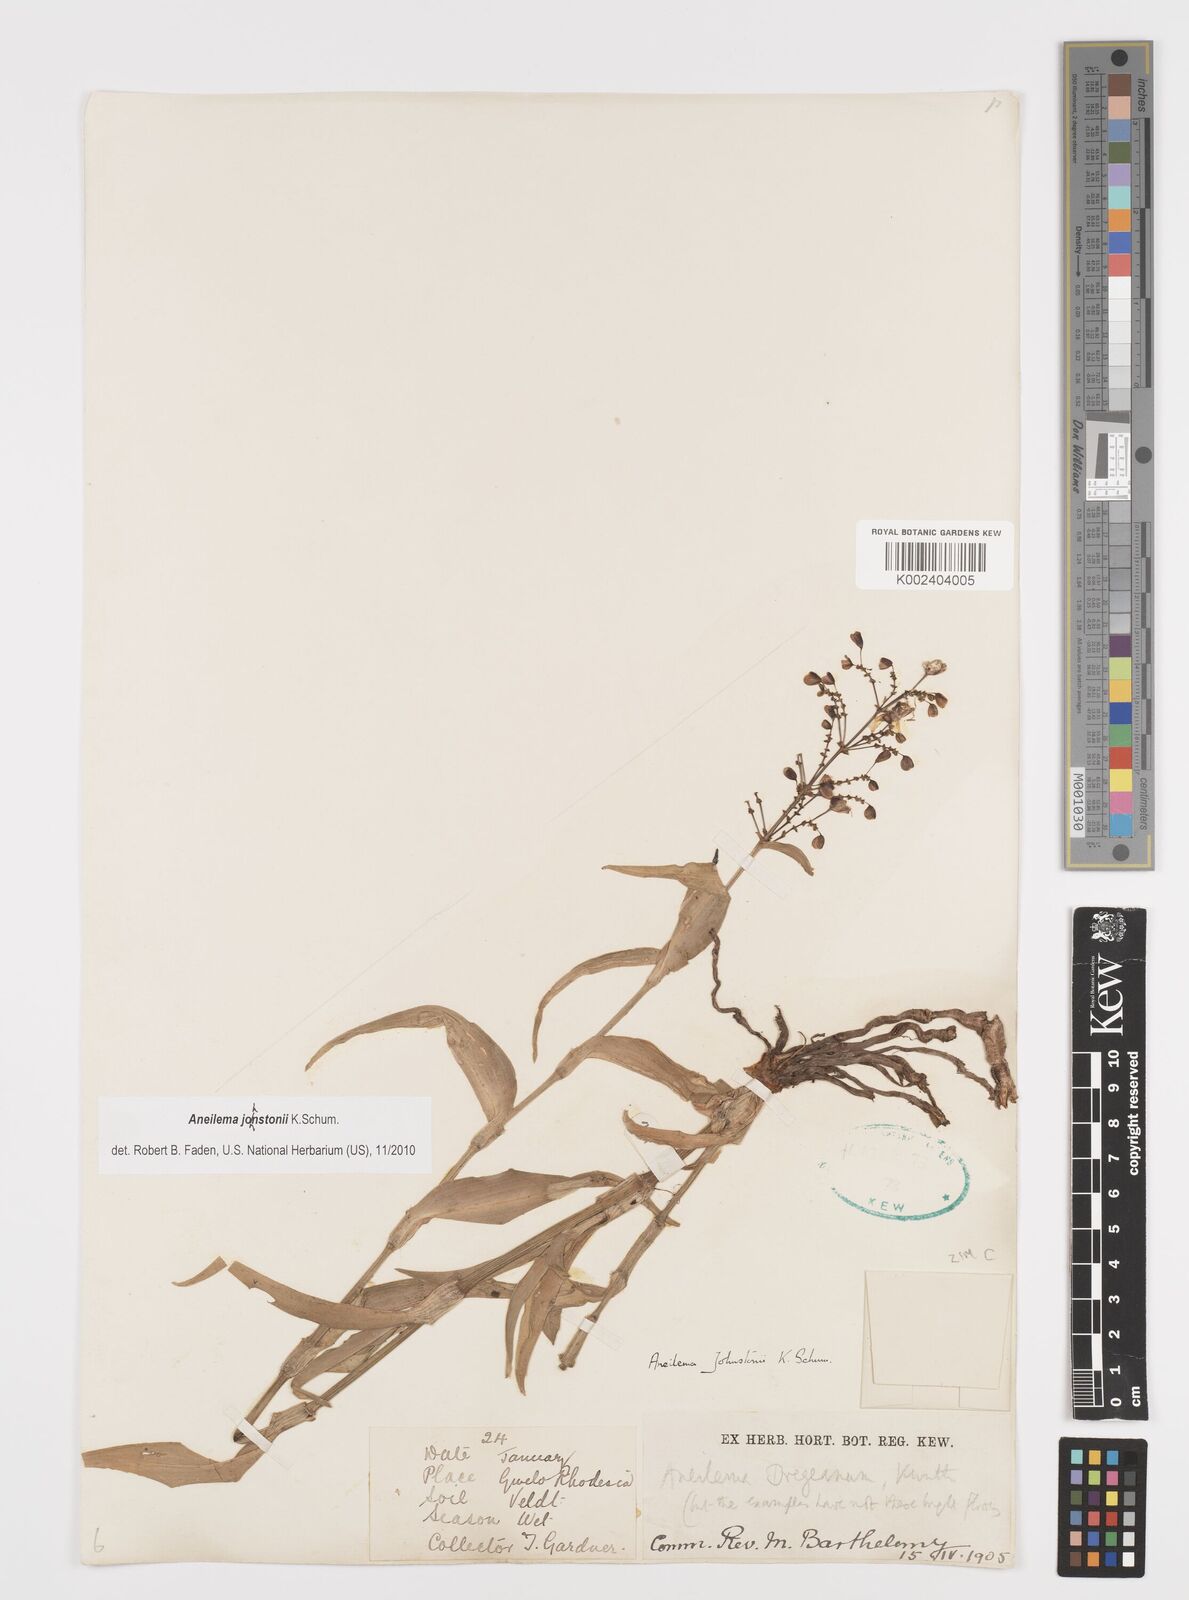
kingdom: Plantae
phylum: Tracheophyta
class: Liliopsida
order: Commelinales
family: Commelinaceae
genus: Aneilema
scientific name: Aneilema johnstonii
